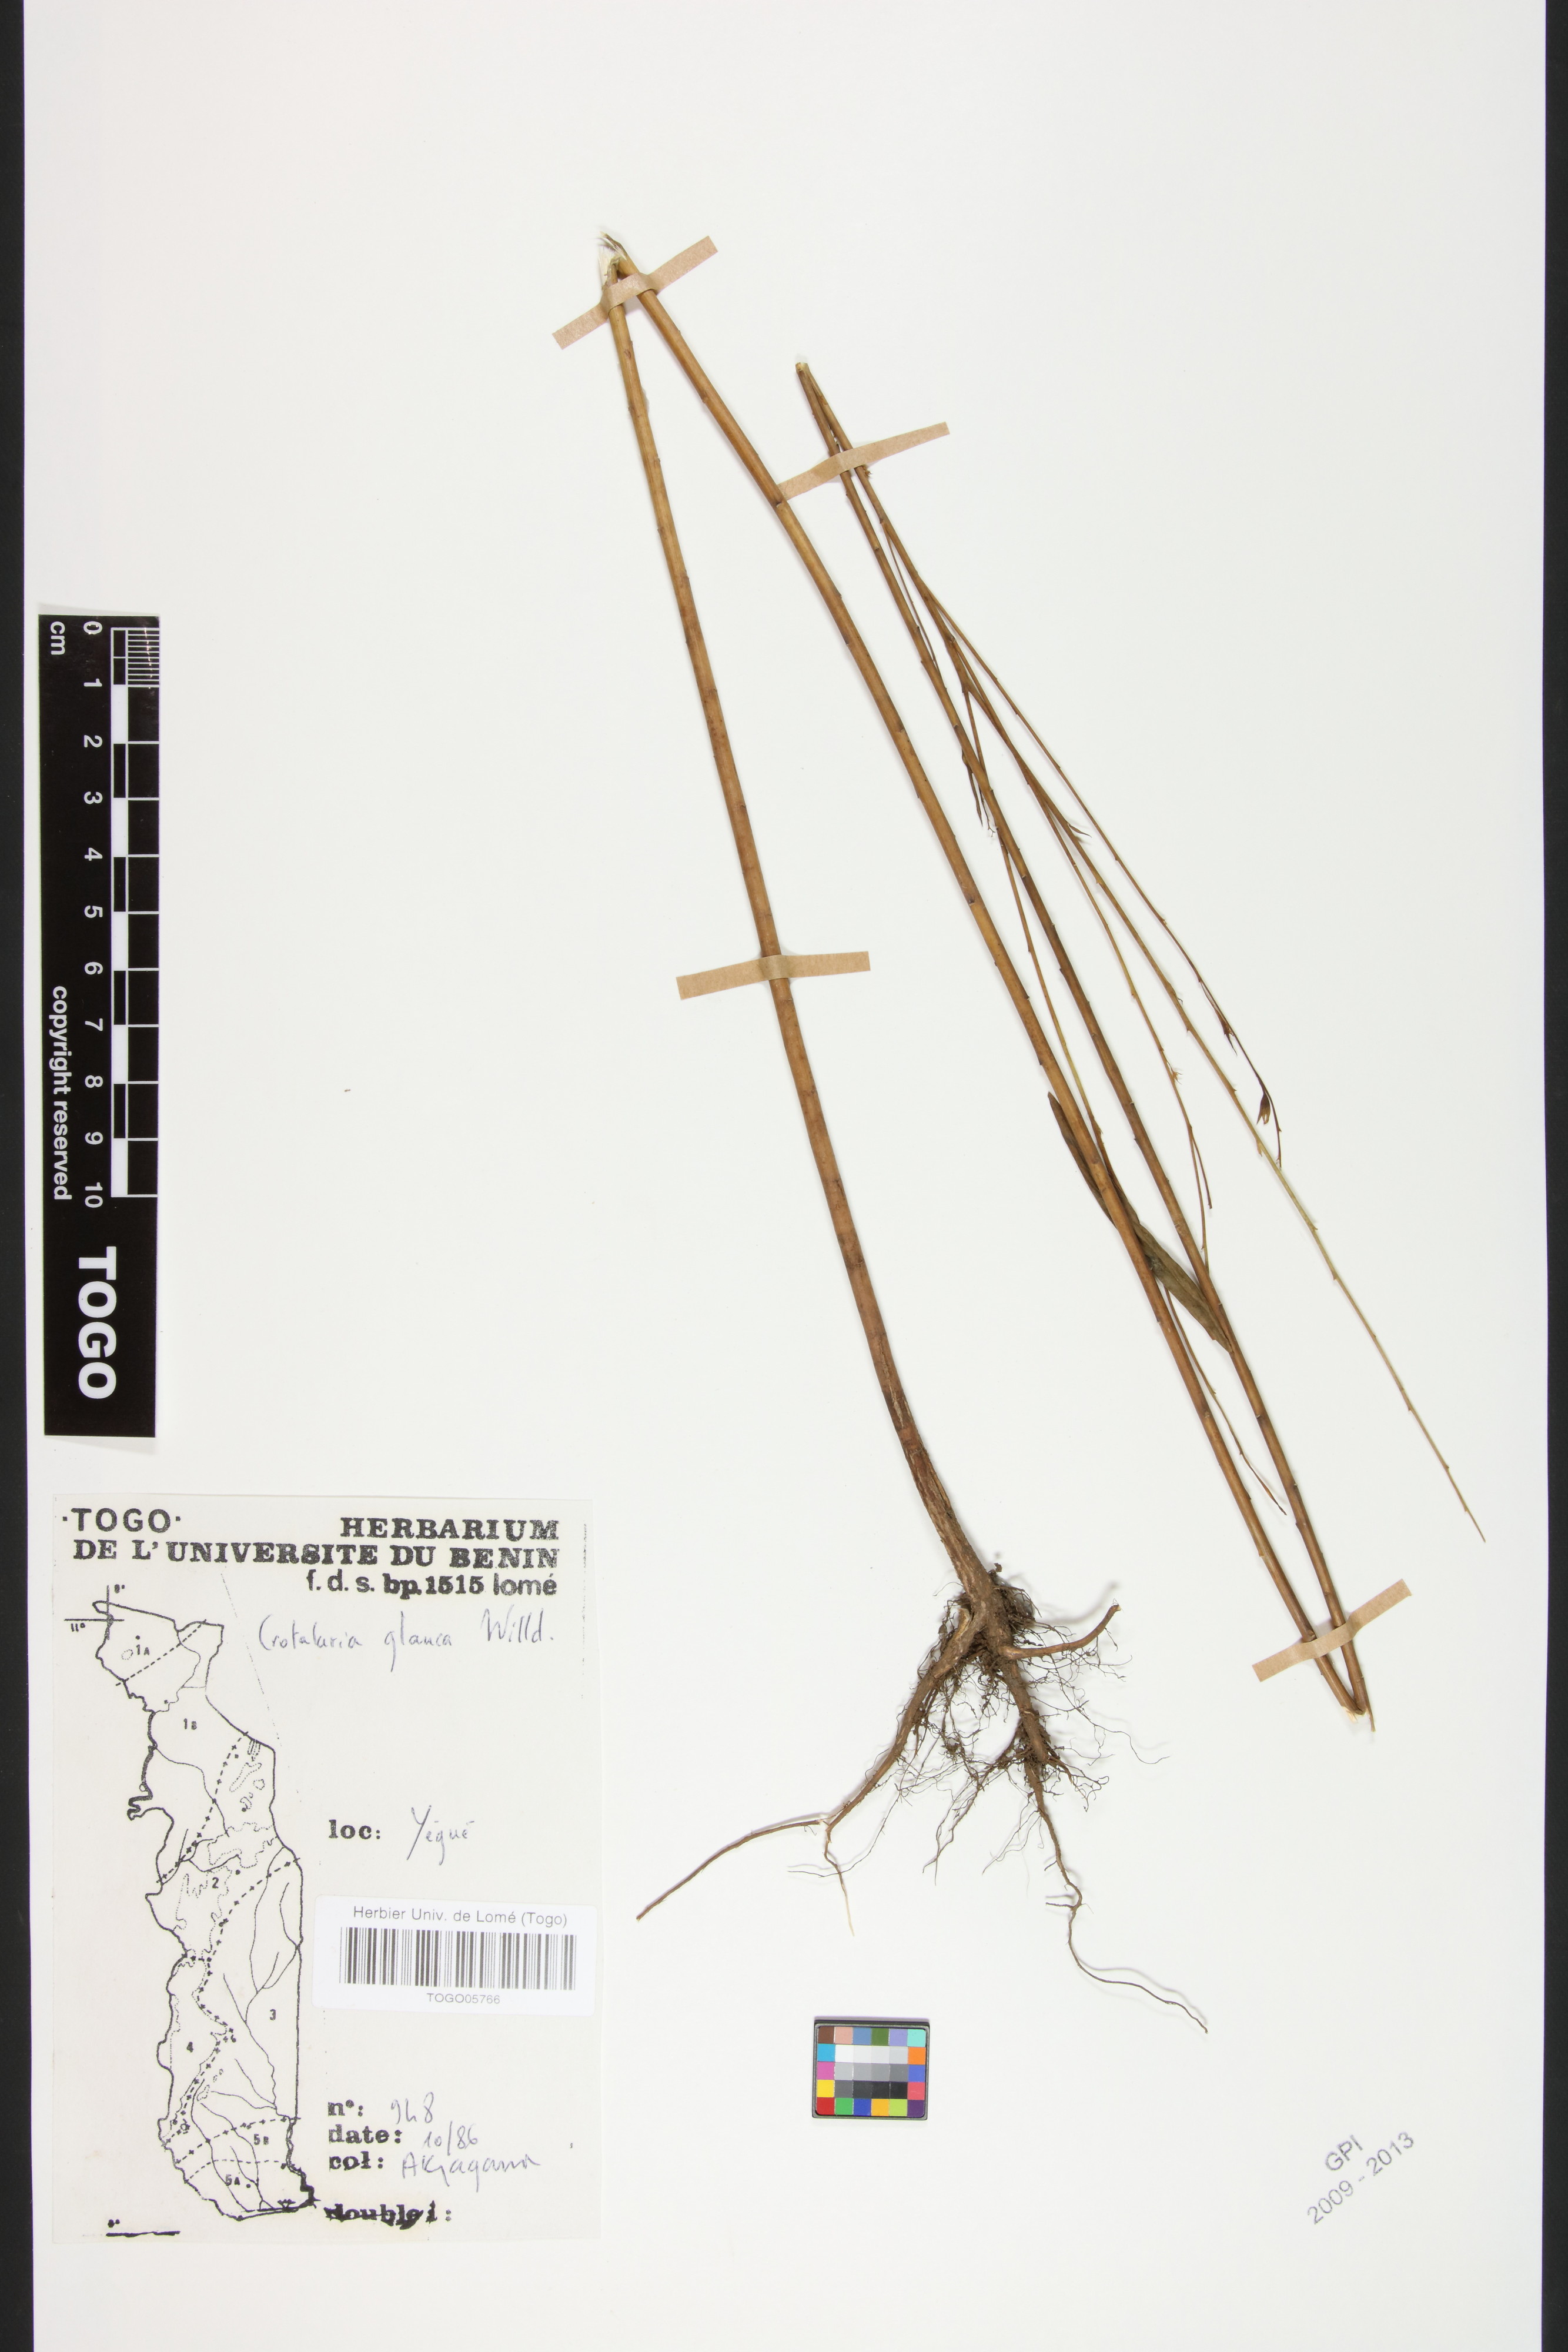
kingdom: Plantae
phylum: Tracheophyta
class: Magnoliopsida
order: Fabales
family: Fabaceae
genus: Crotalaria
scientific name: Crotalaria glauca
